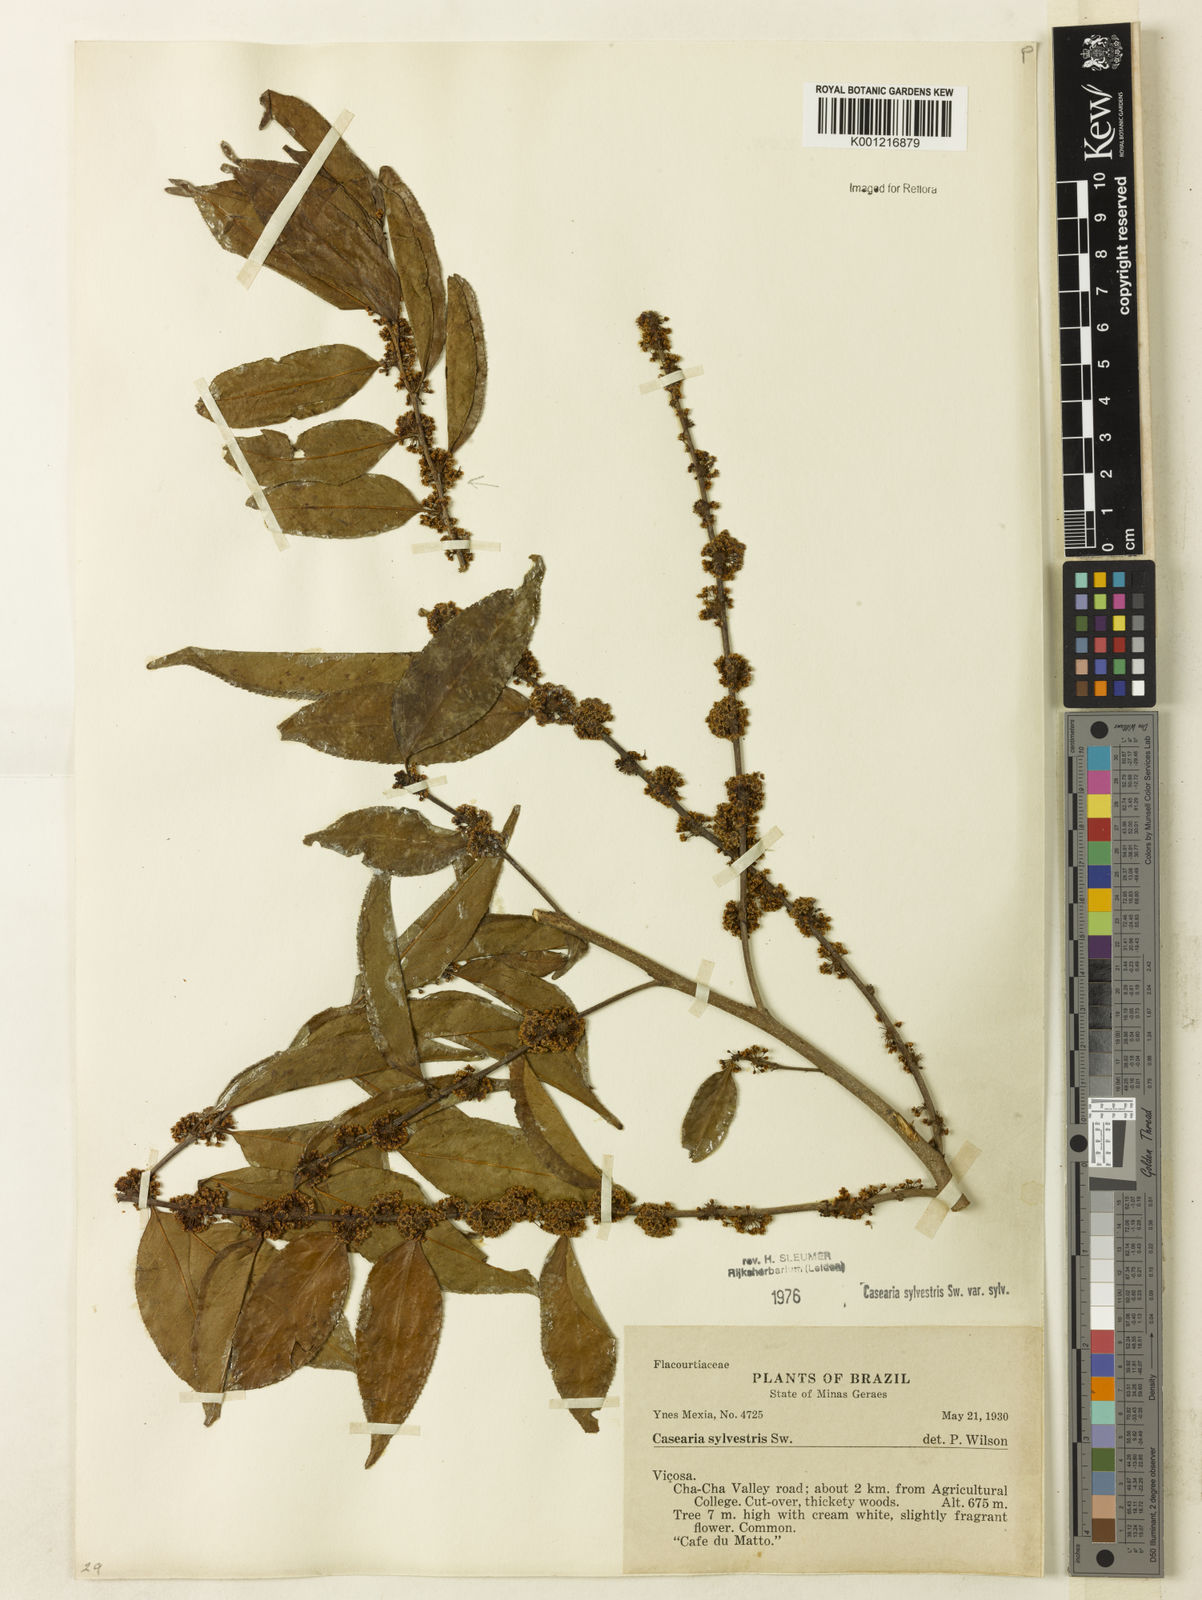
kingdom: Plantae
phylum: Tracheophyta
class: Magnoliopsida
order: Malpighiales
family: Salicaceae
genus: Casearia
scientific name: Casearia sylvestris
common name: Wild sage
